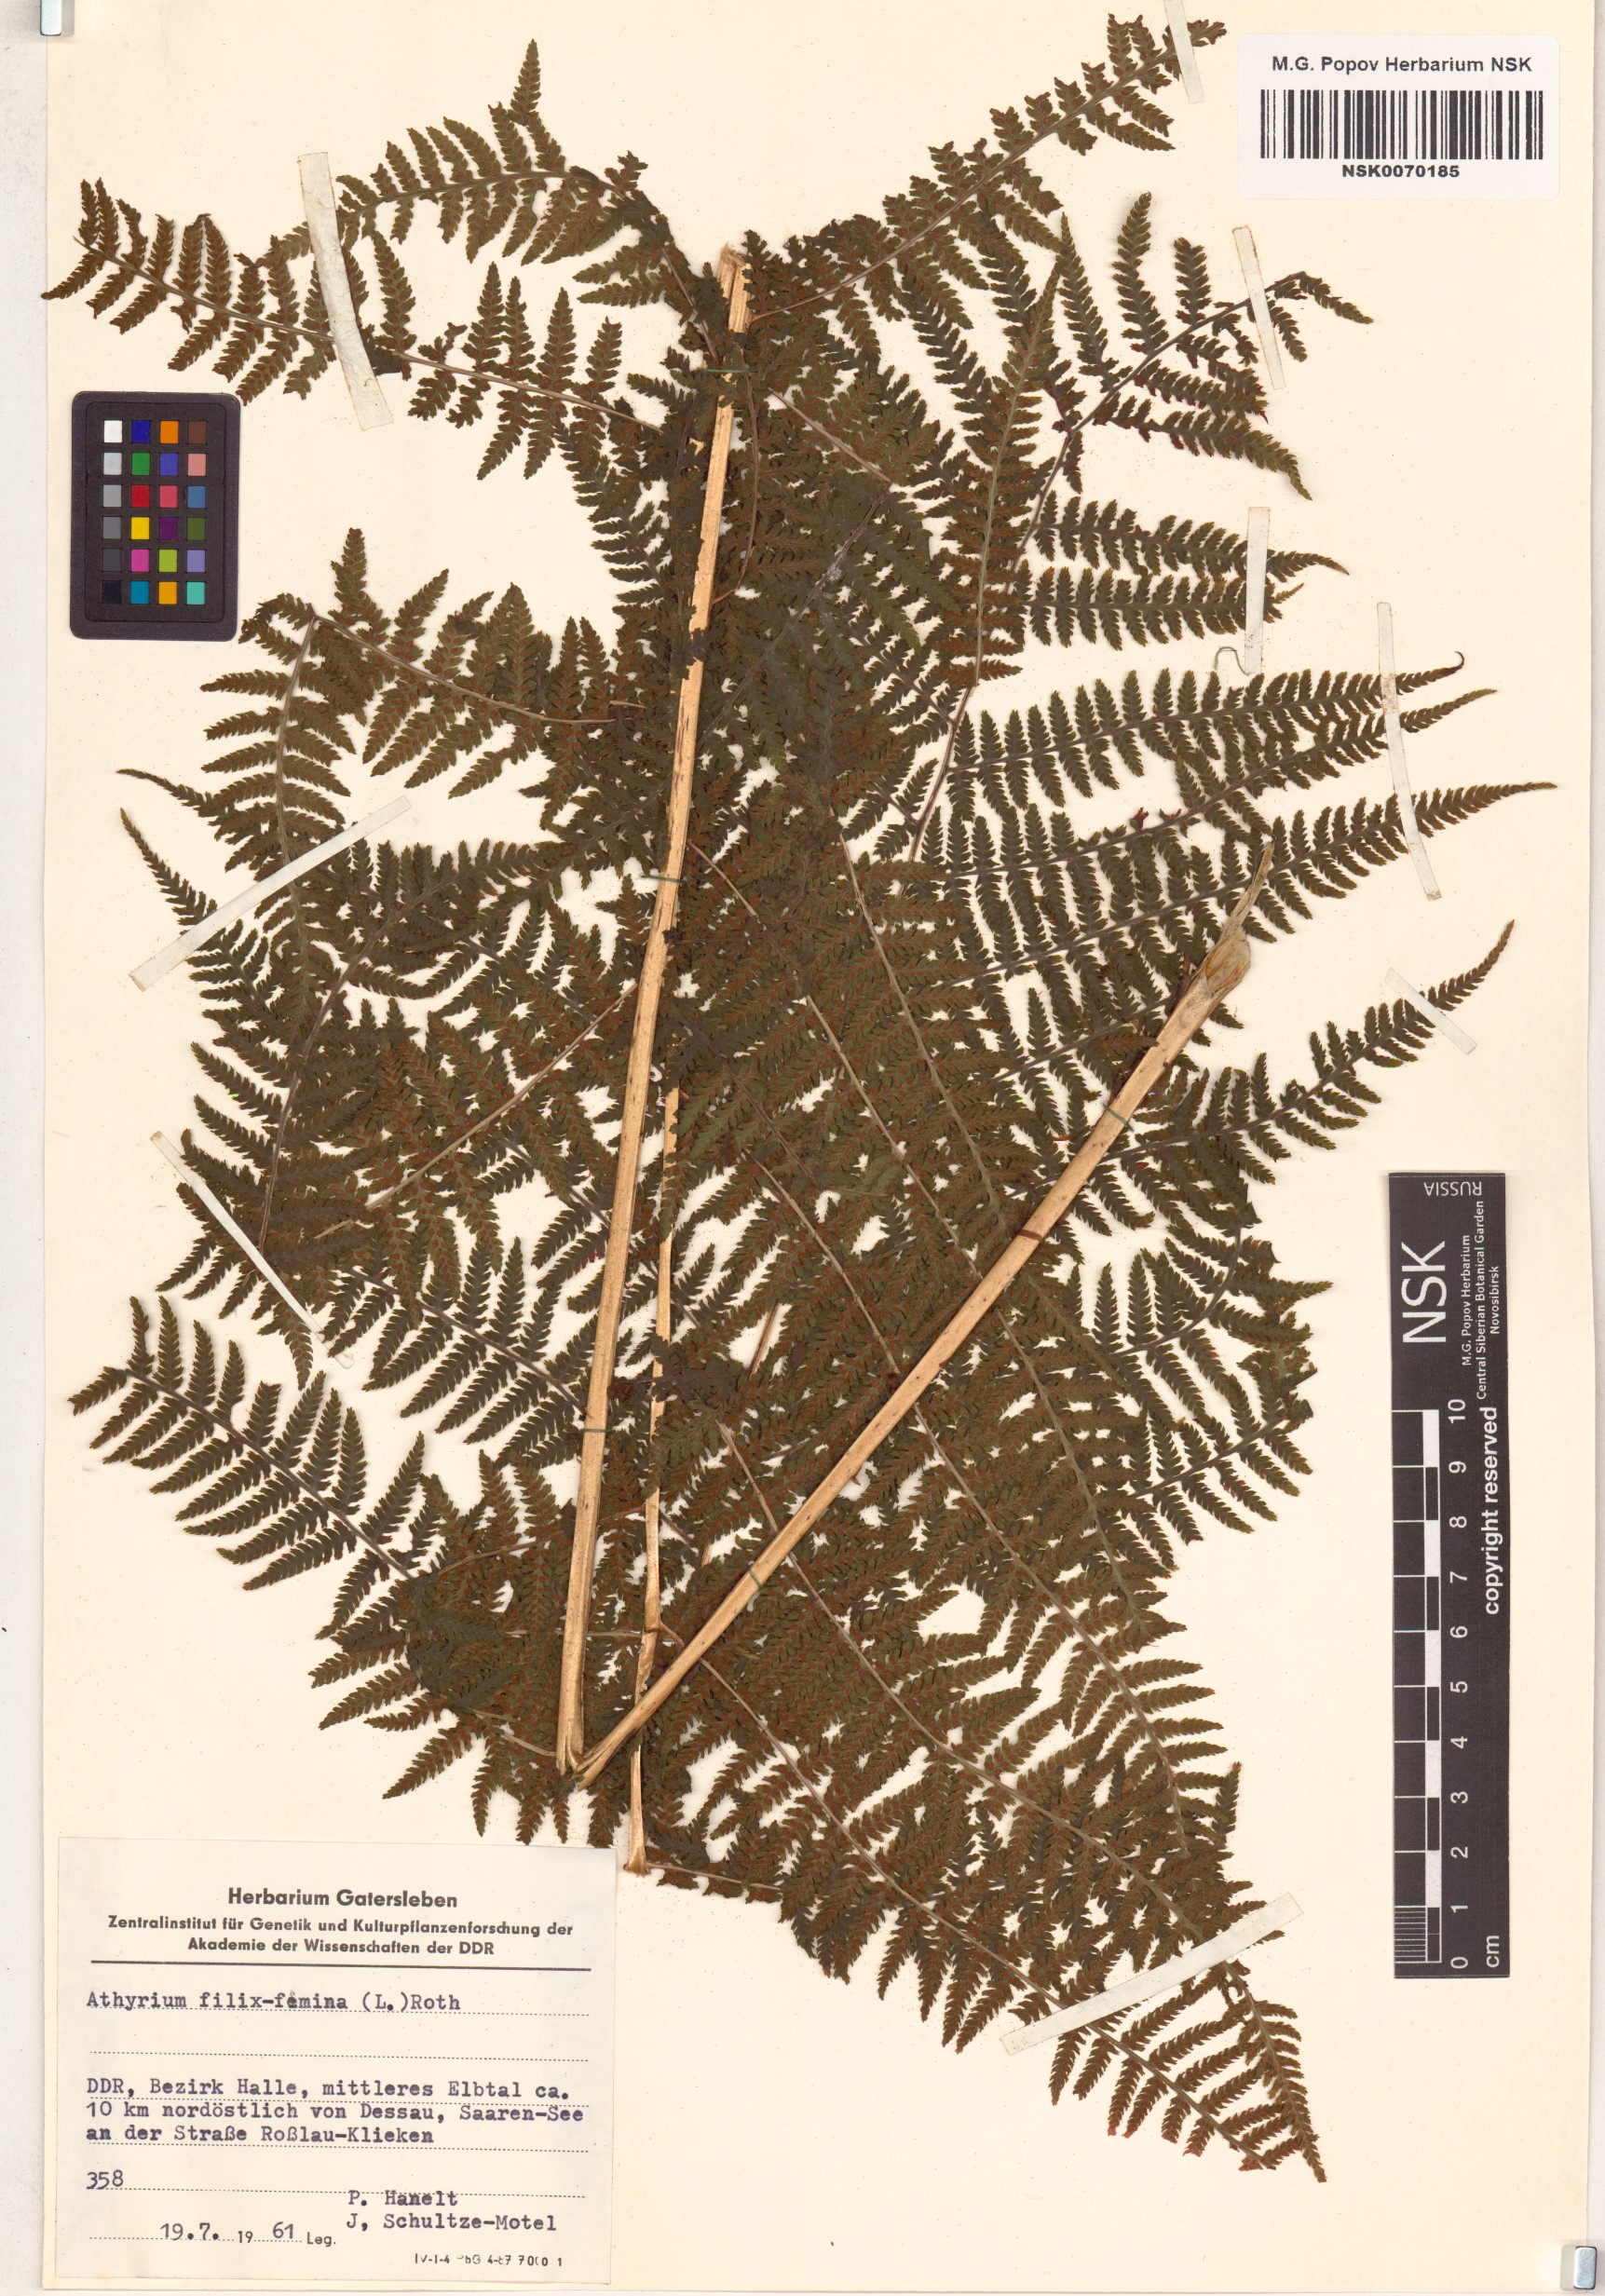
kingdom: Plantae
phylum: Tracheophyta
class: Polypodiopsida
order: Polypodiales
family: Athyriaceae
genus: Athyrium
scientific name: Athyrium filix-femina
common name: Lady fern
